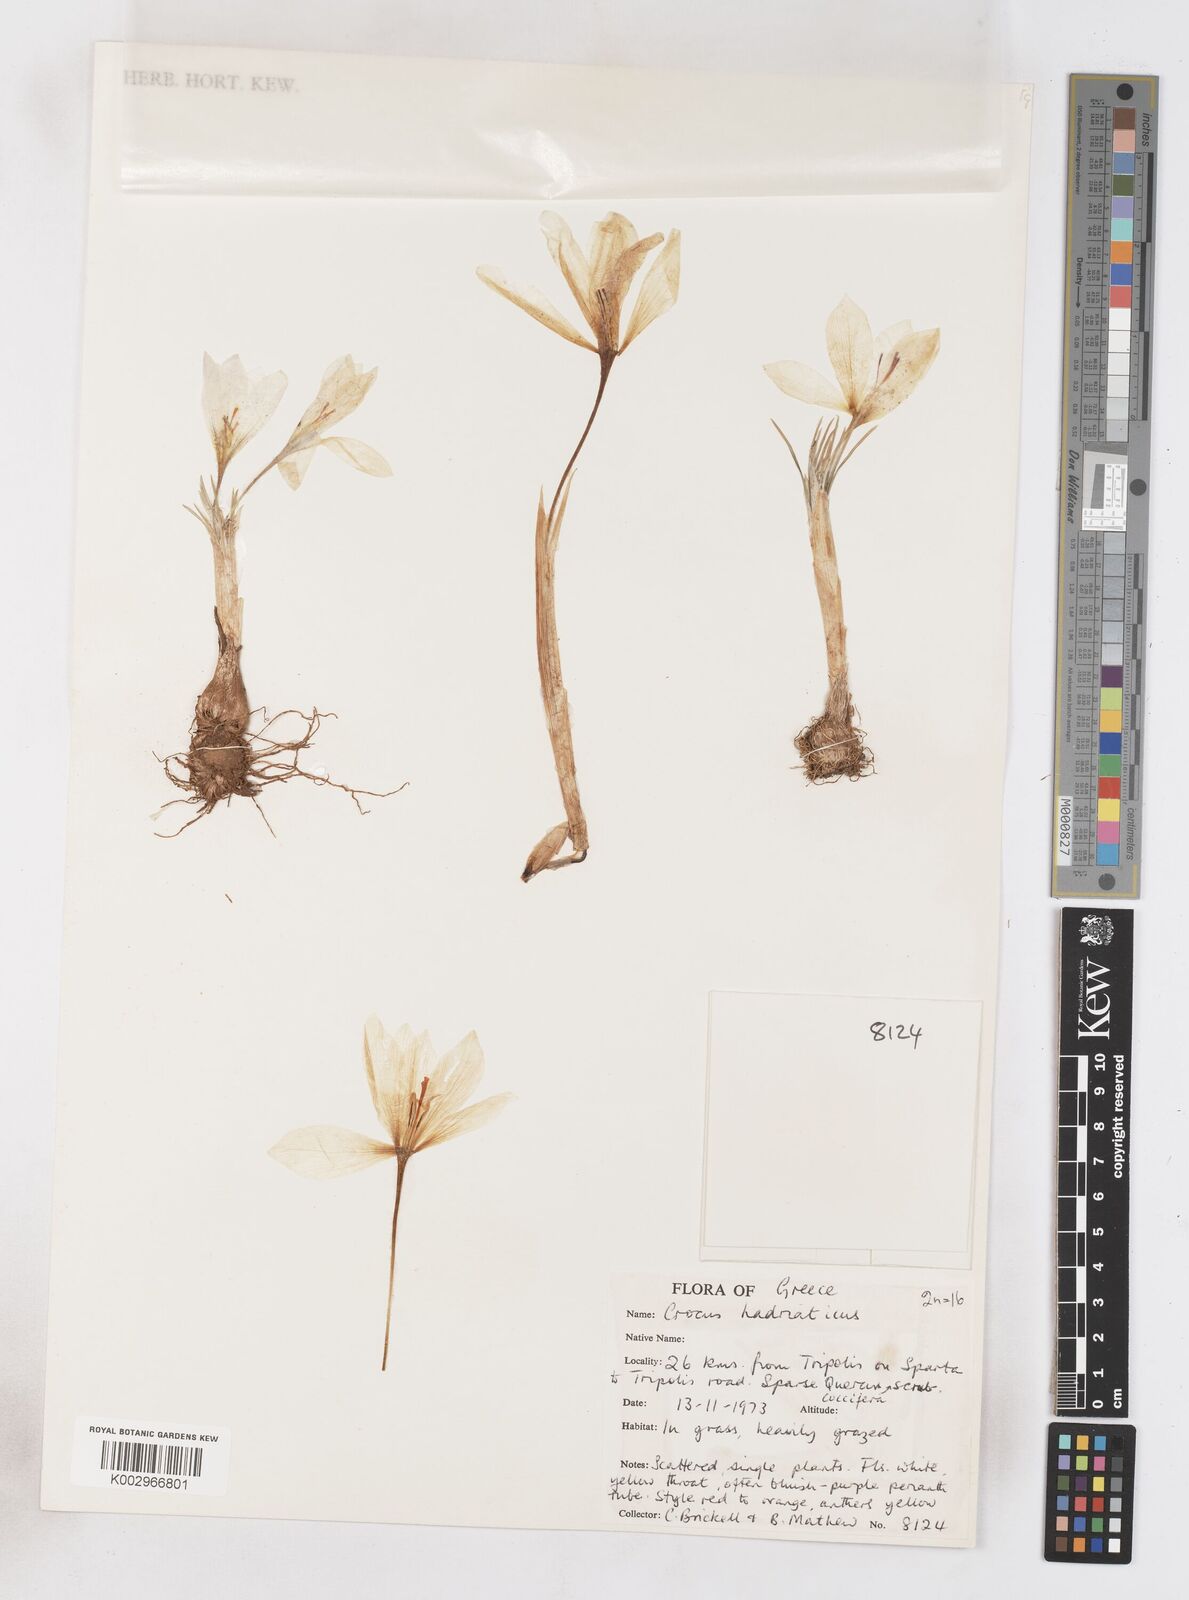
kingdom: Plantae
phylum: Tracheophyta
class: Liliopsida
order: Asparagales
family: Iridaceae
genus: Crocus
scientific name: Crocus hadriaticus
